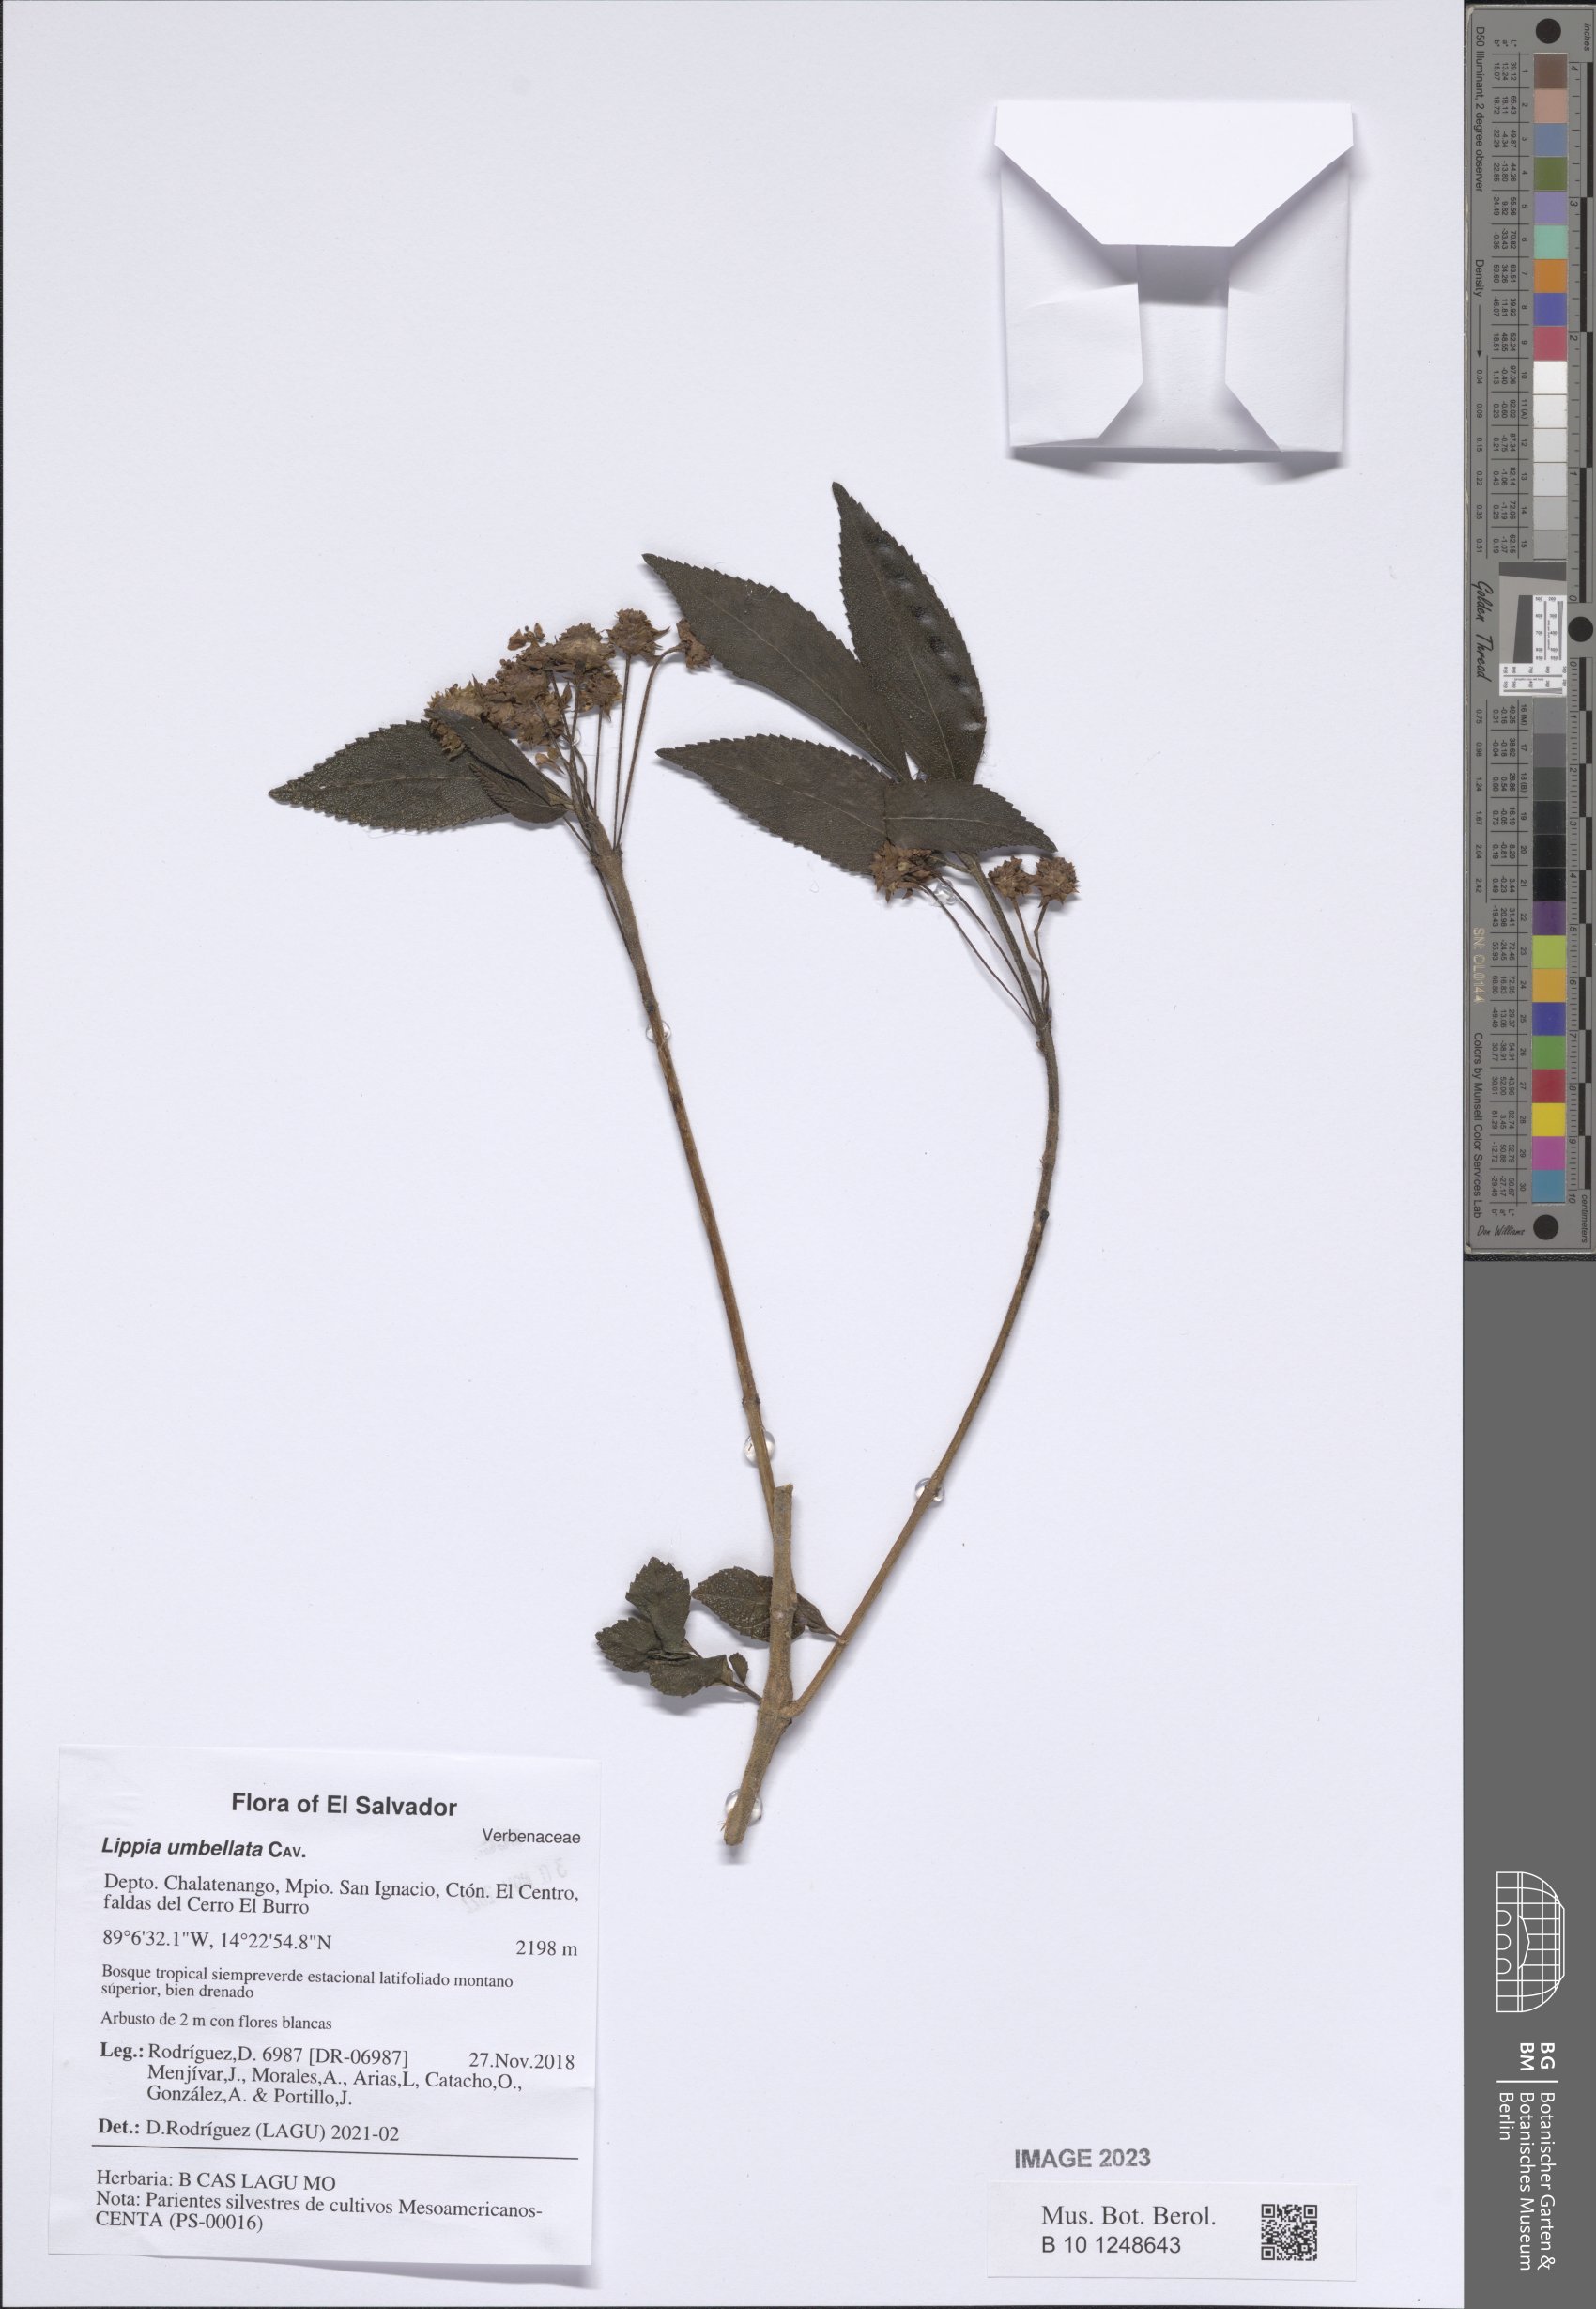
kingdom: Plantae
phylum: Tracheophyta
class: Magnoliopsida
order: Lamiales
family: Verbenaceae
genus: Lippia
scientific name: Lippia umbellata
